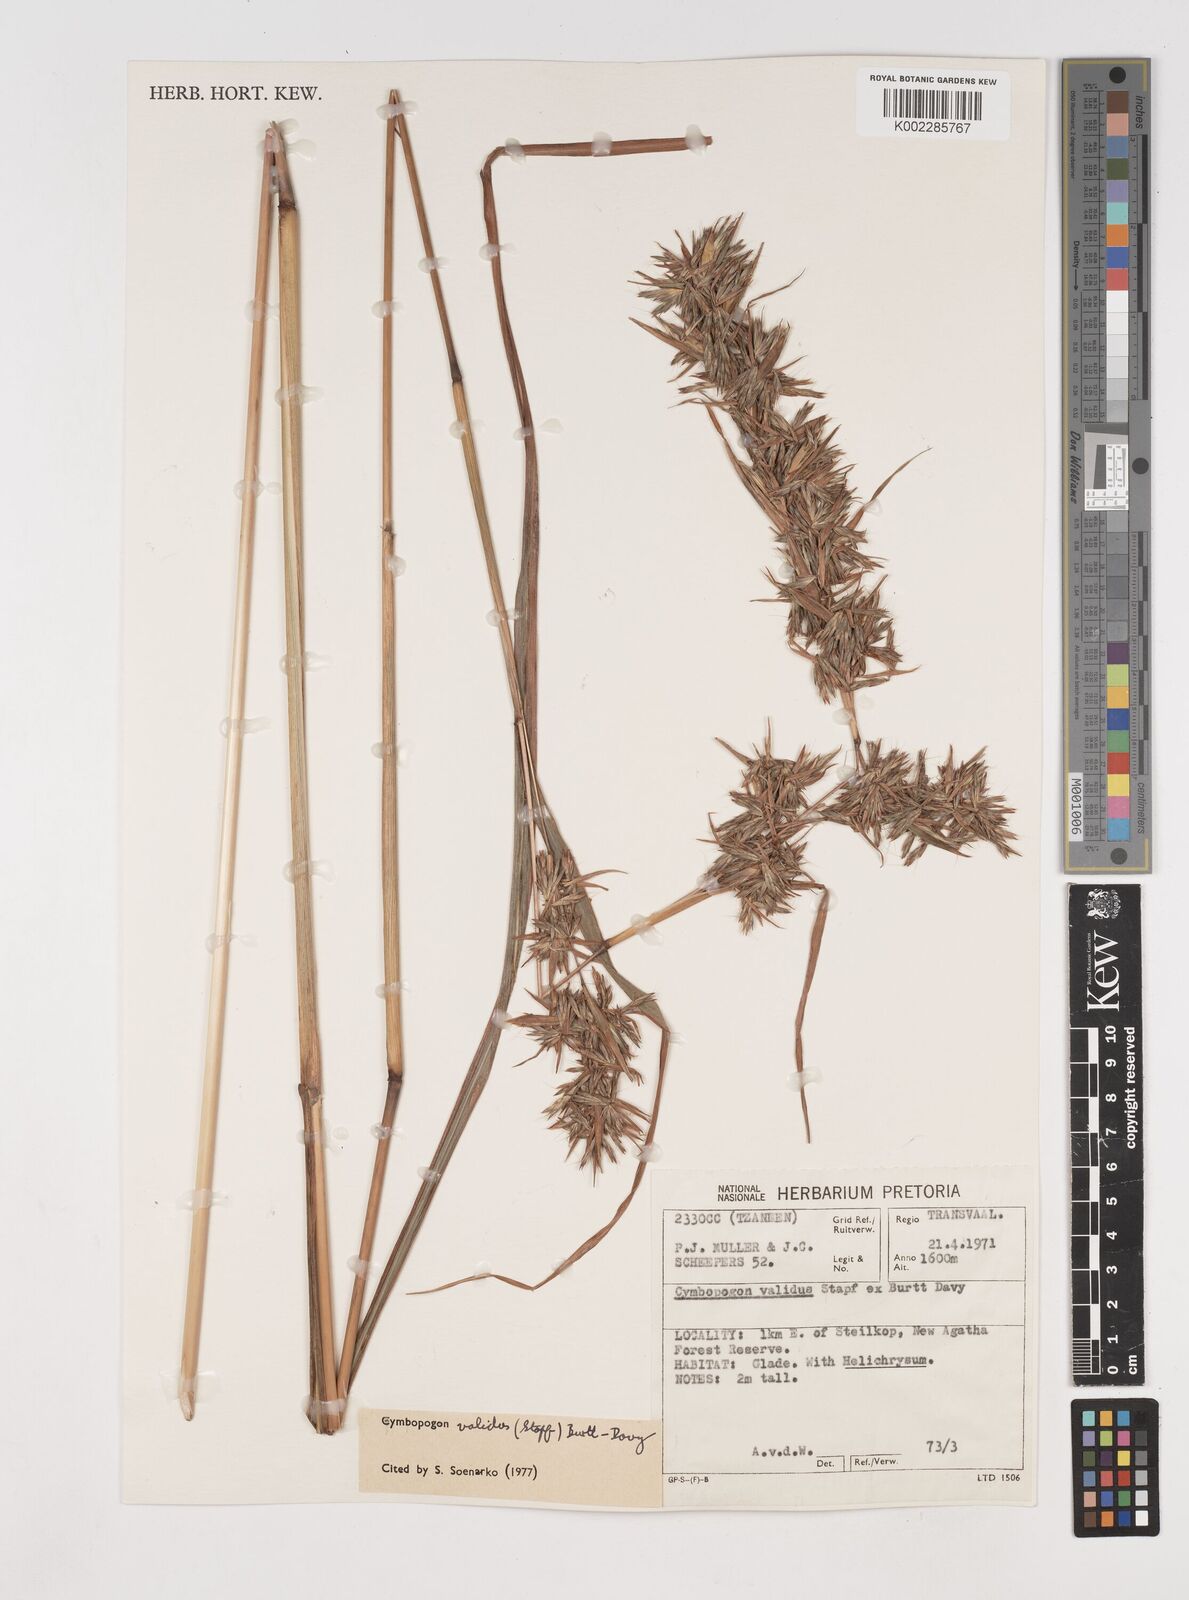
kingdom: Plantae
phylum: Tracheophyta
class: Liliopsida
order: Poales
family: Poaceae
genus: Cymbopogon
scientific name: Cymbopogon nardus
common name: Giant turpentine grass
